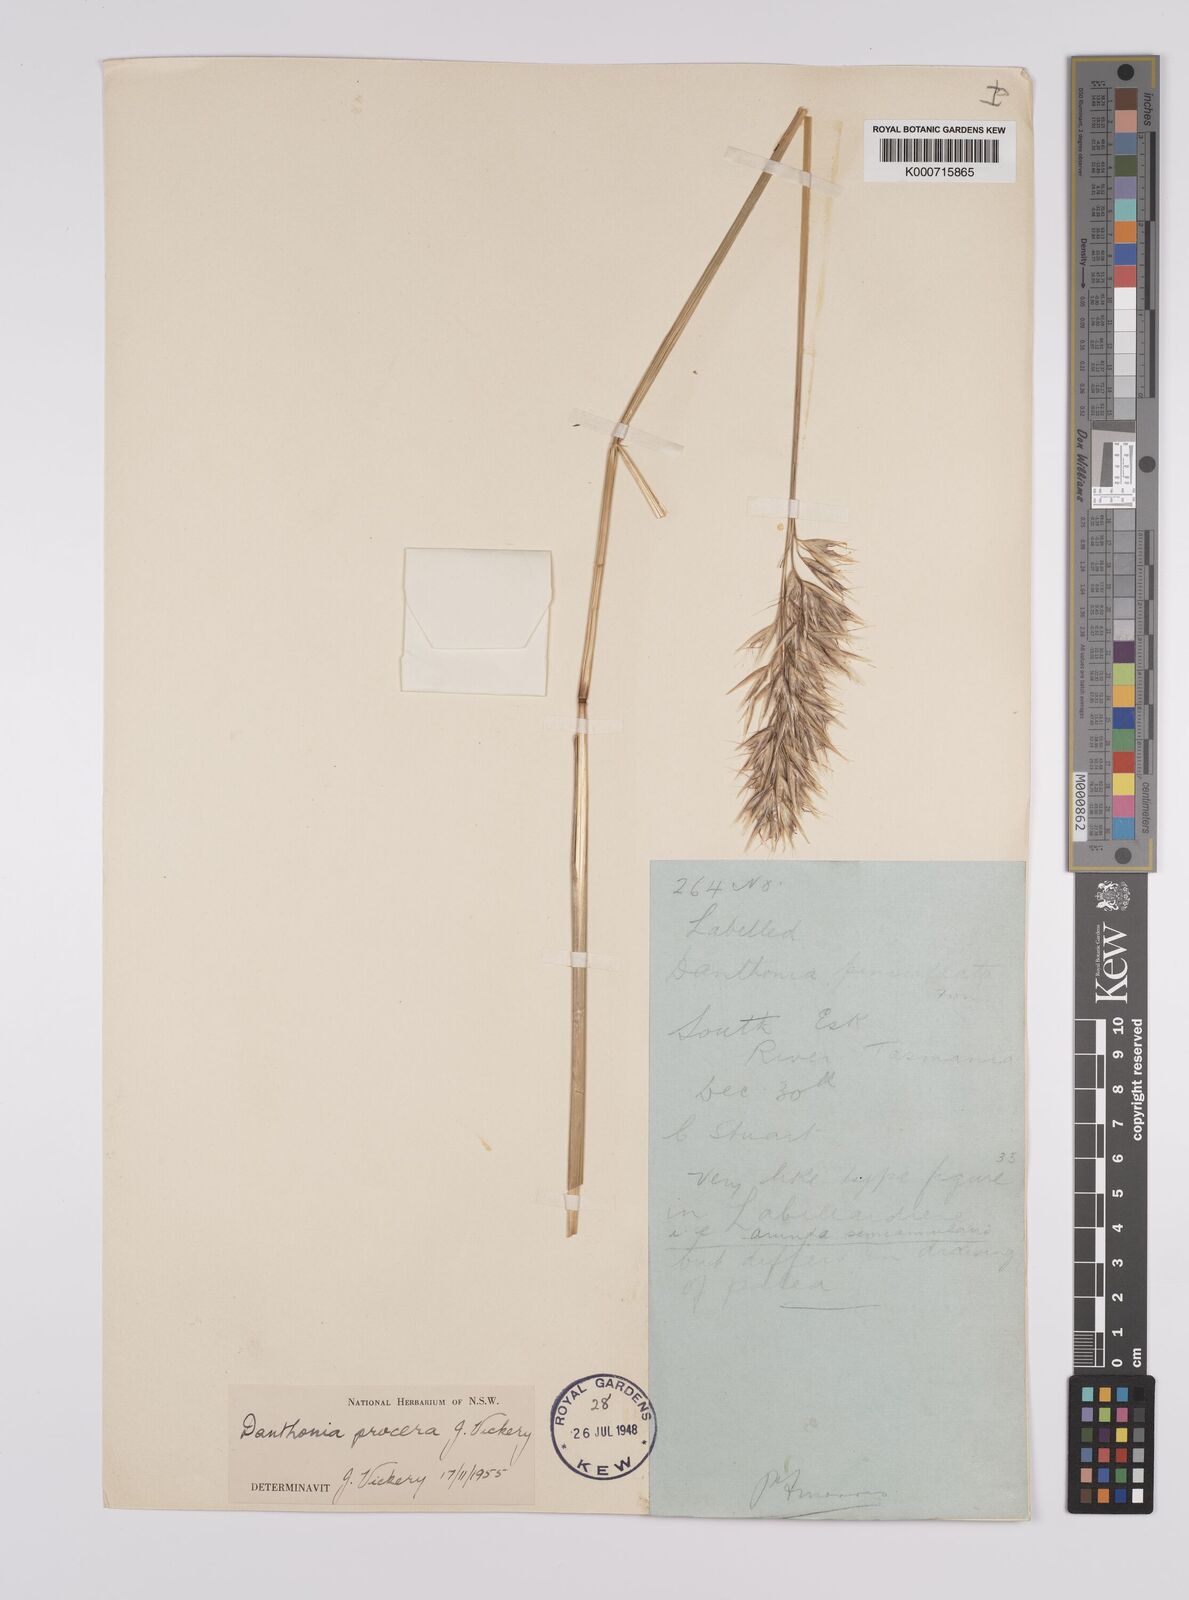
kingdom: Plantae
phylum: Tracheophyta
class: Liliopsida
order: Poales
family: Poaceae
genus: Rytidosperma
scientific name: Rytidosperma indutum
